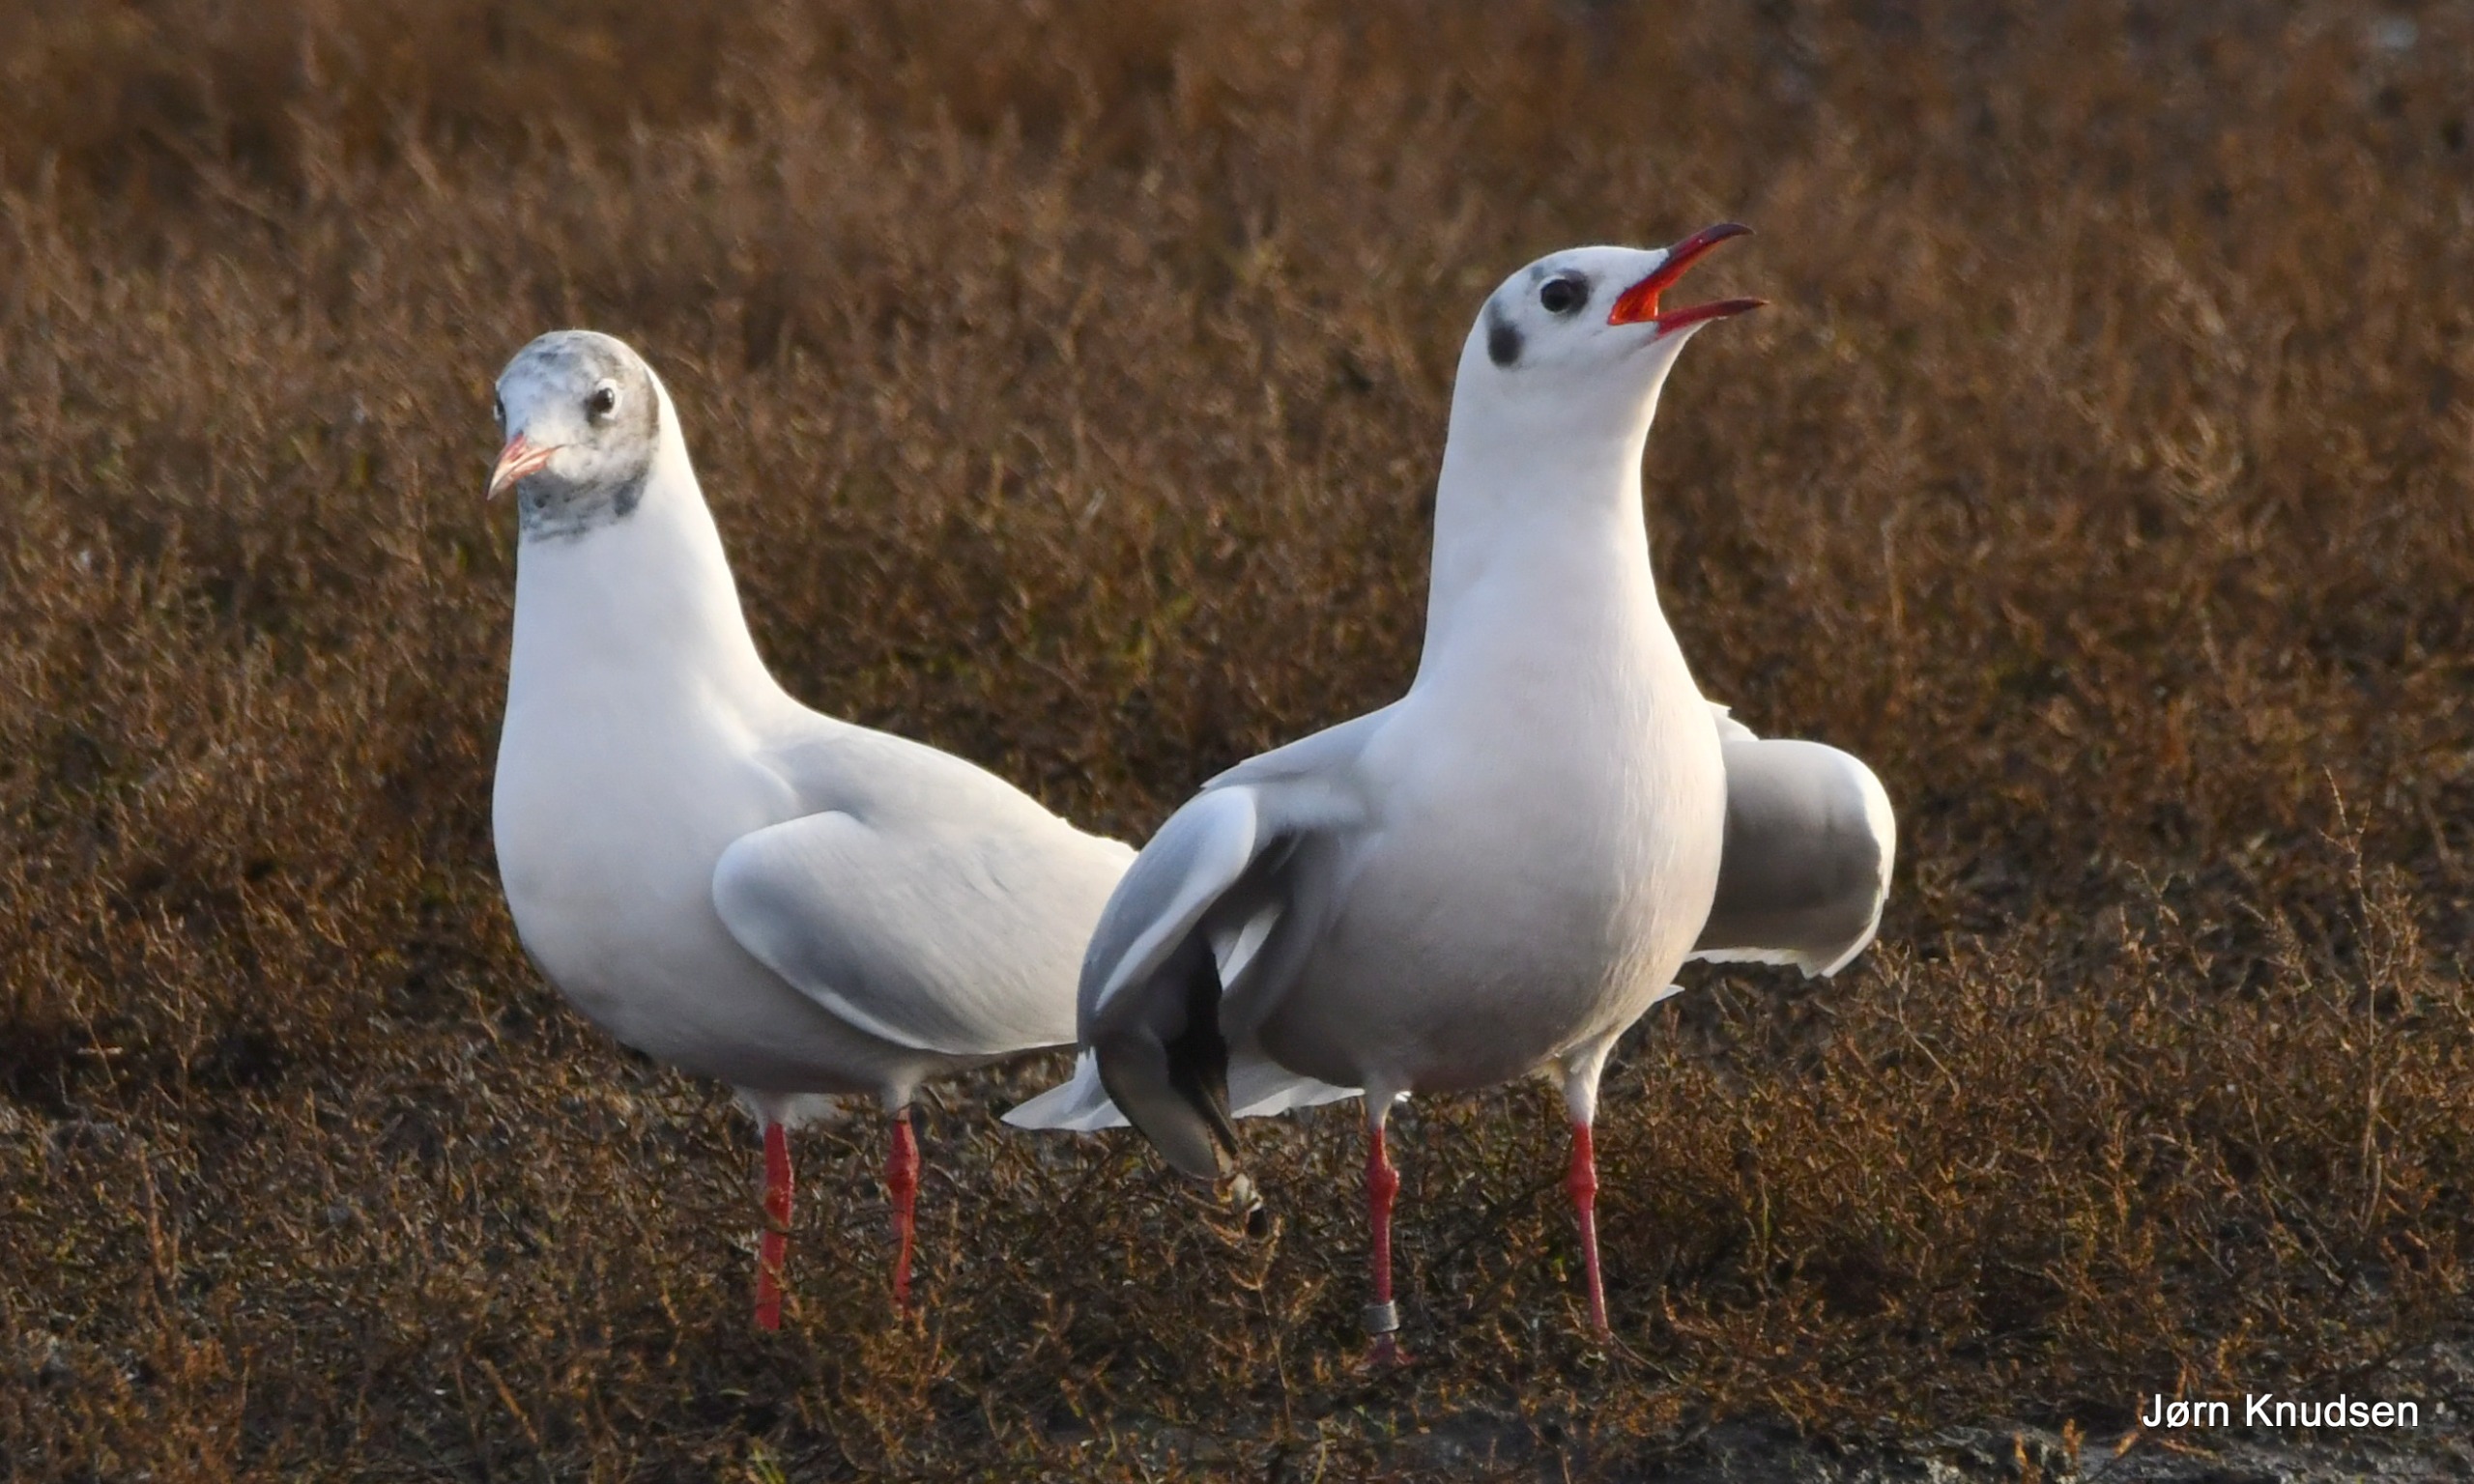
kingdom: Animalia
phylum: Chordata
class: Aves
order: Charadriiformes
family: Laridae
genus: Chroicocephalus
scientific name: Chroicocephalus ridibundus
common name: Hættemåge
